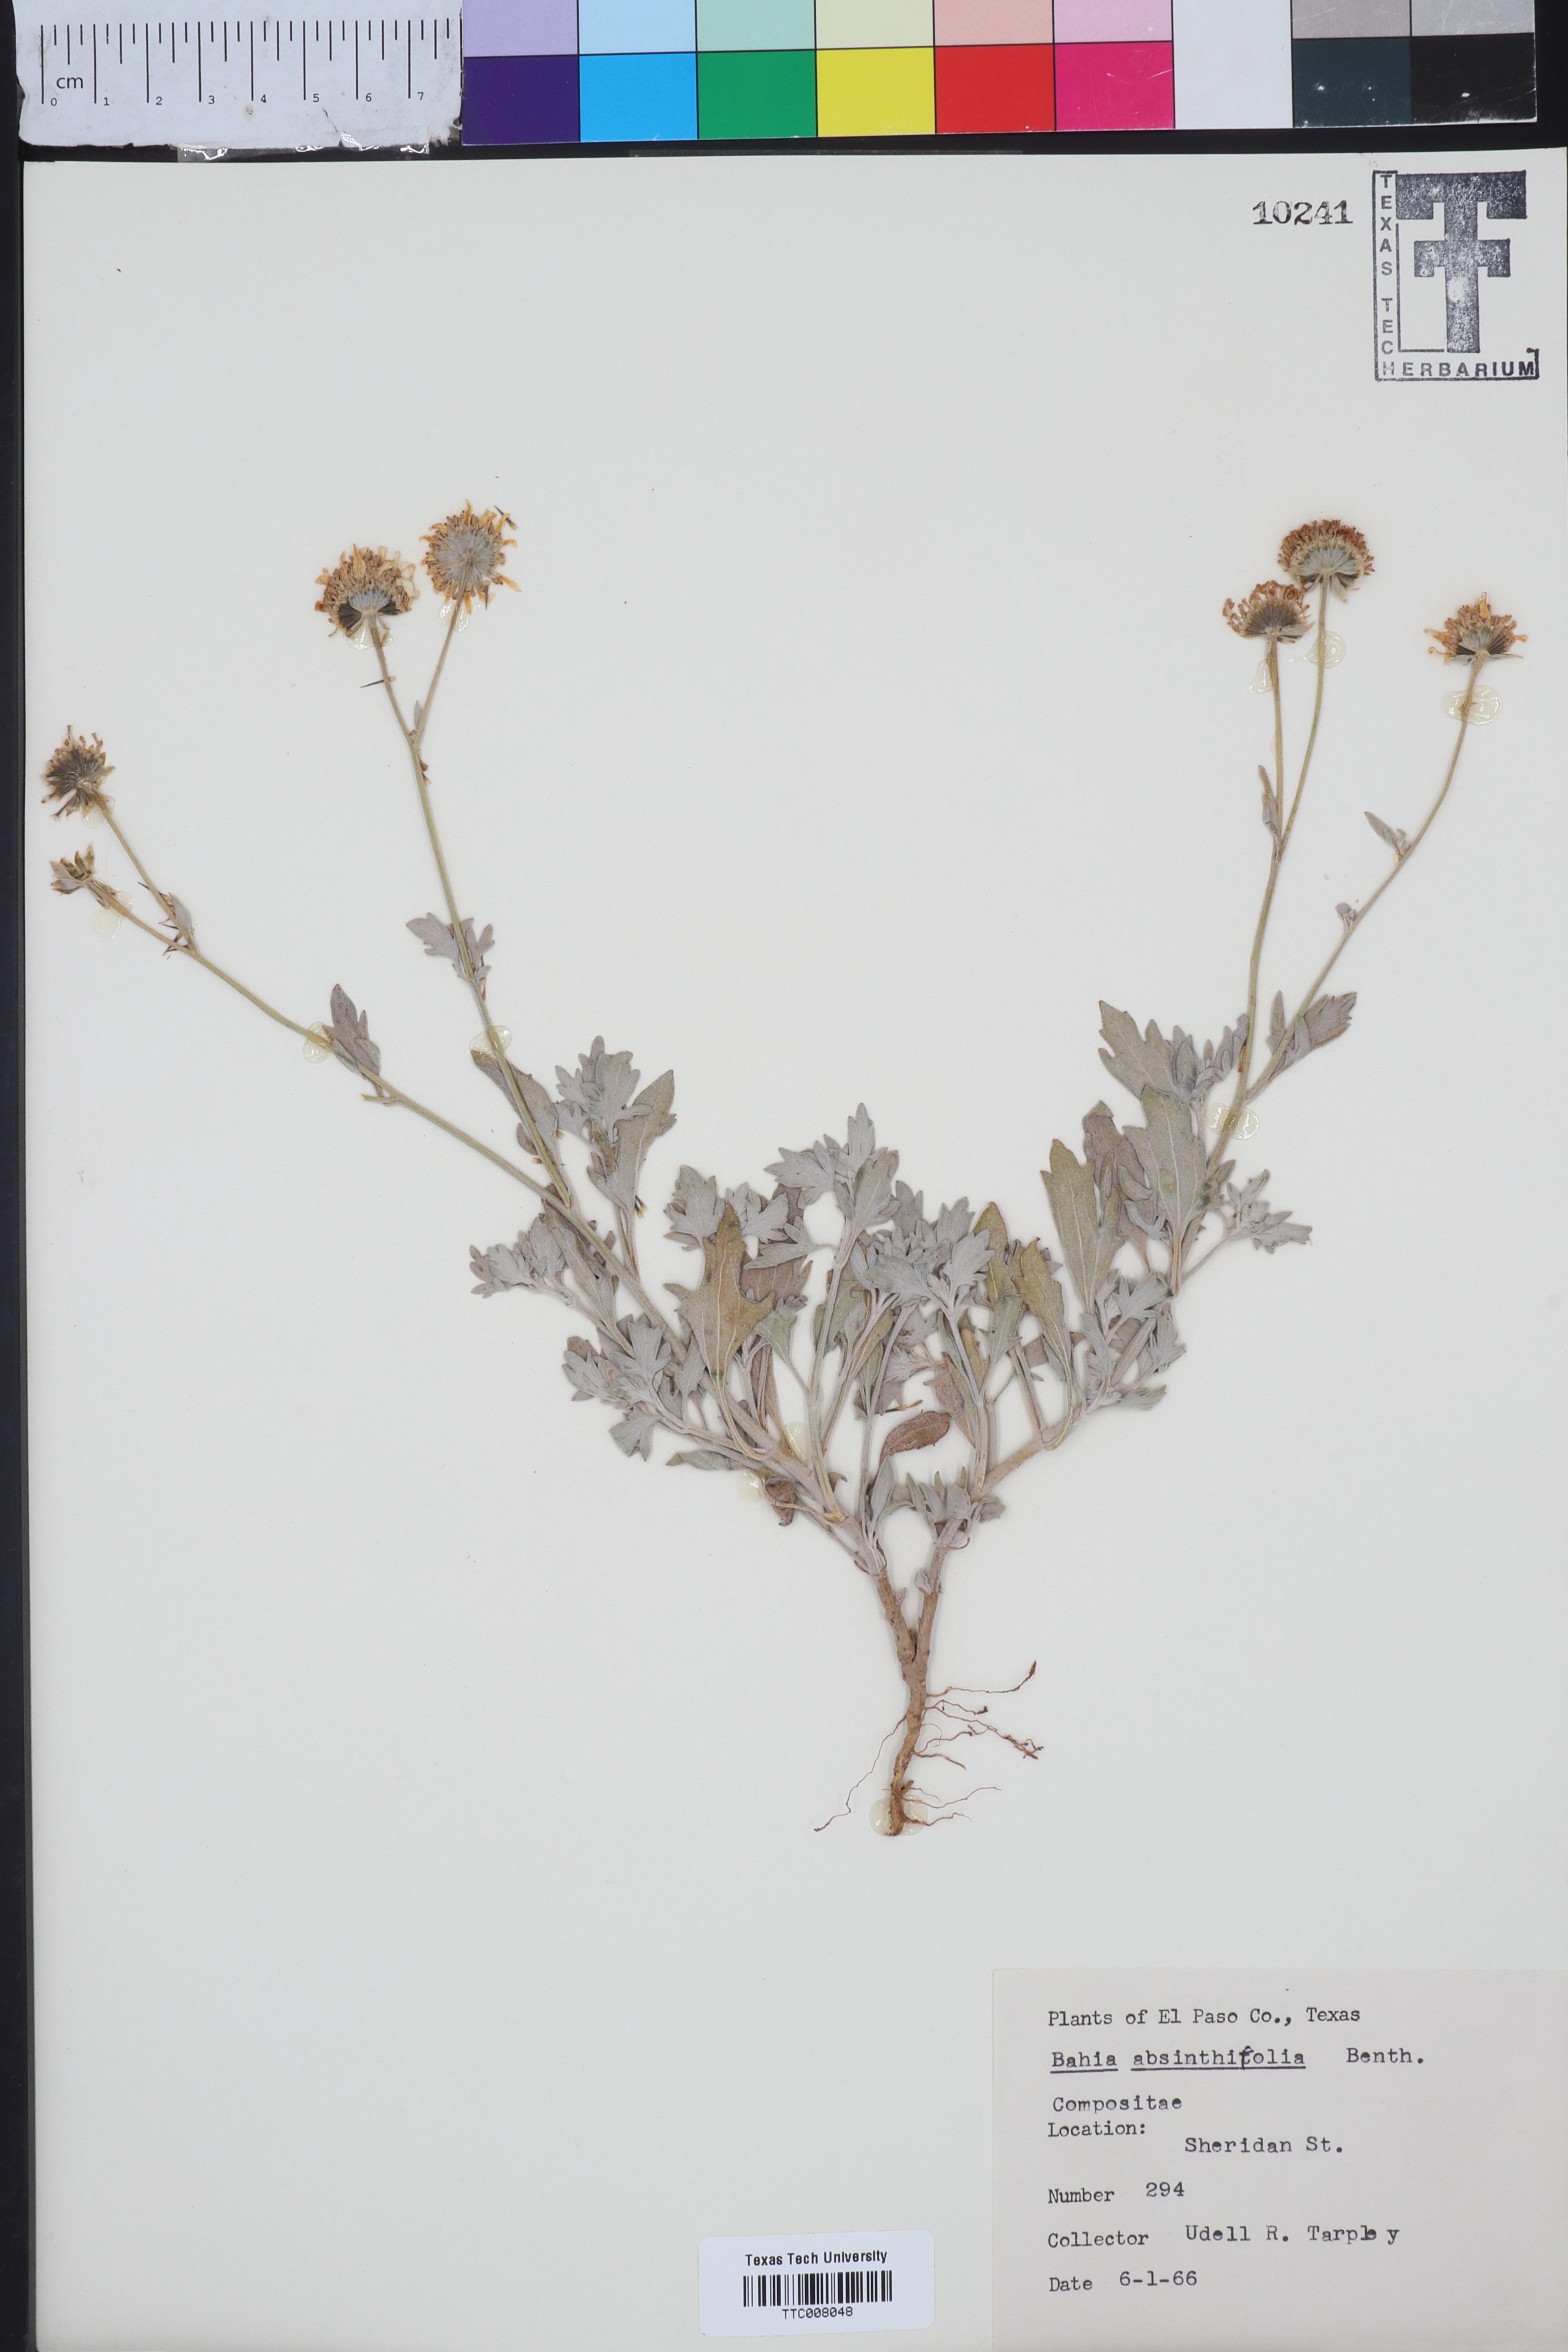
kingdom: Plantae
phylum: Tracheophyta
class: Magnoliopsida
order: Asterales
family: Asteraceae
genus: Picradeniopsis
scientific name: Picradeniopsis absinthifolia
